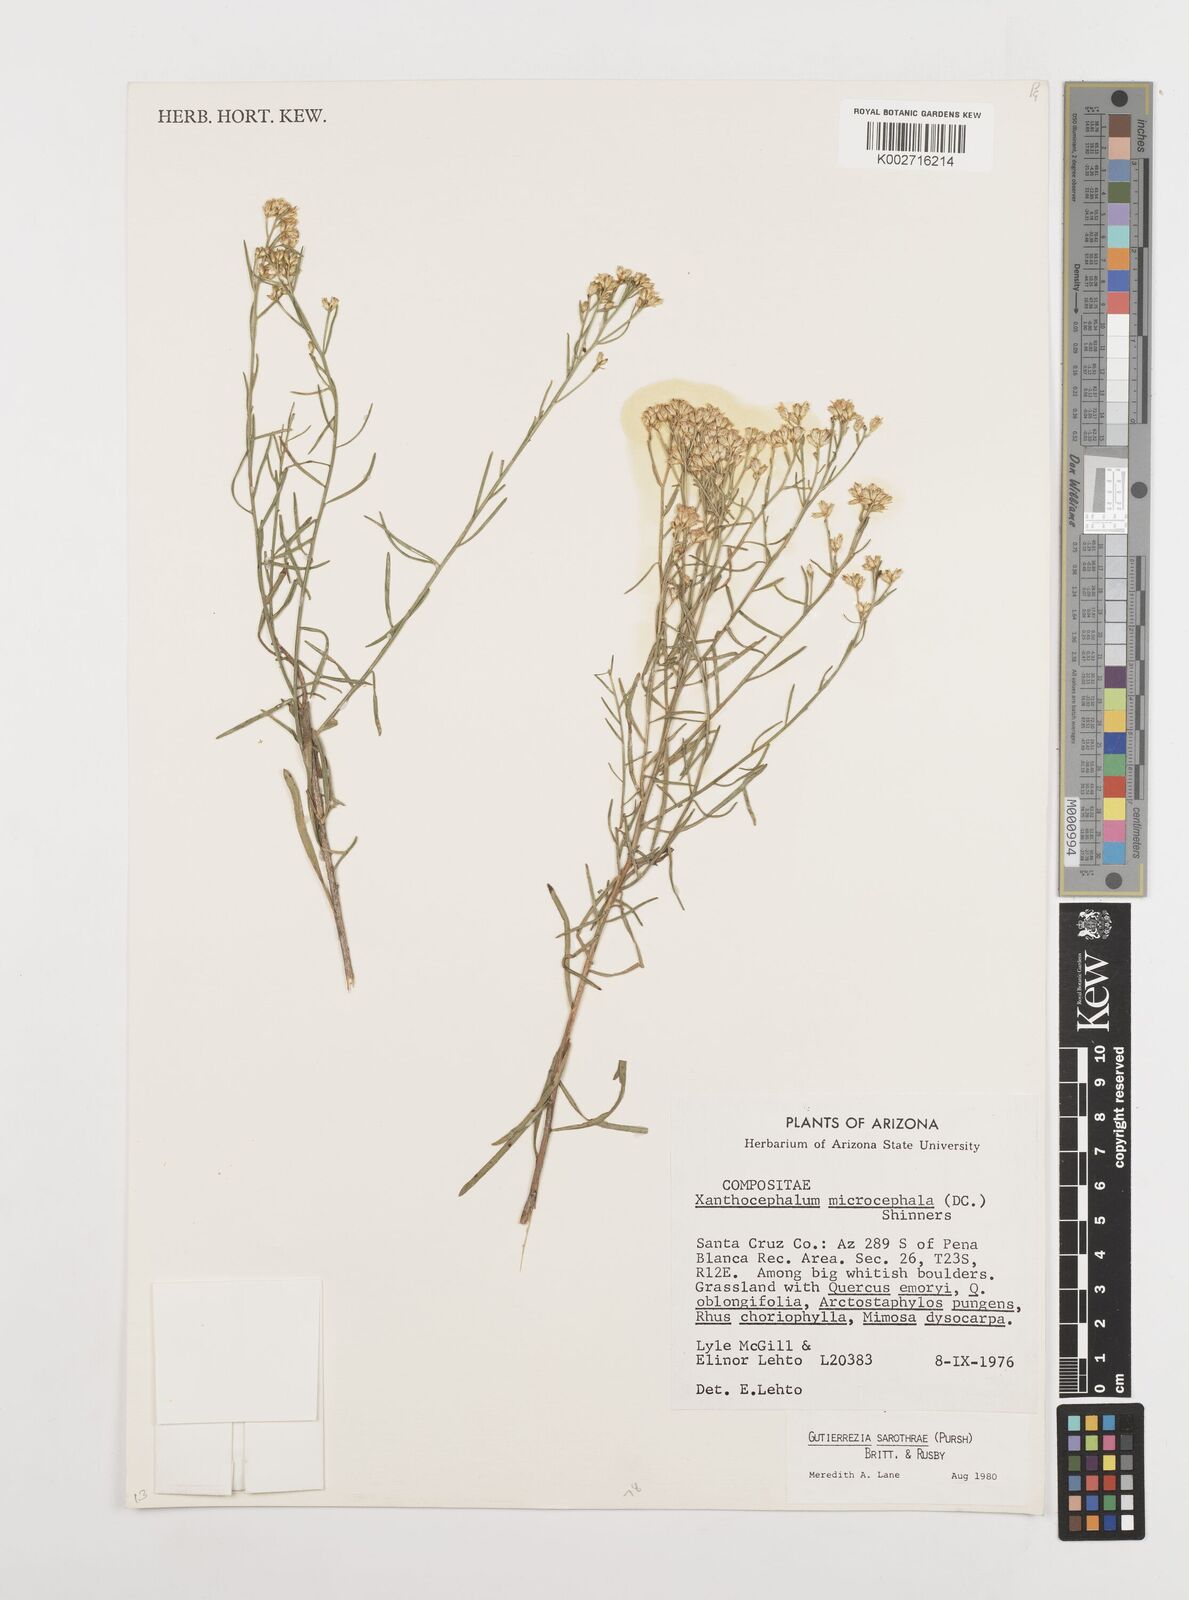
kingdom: Plantae
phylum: Tracheophyta
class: Magnoliopsida
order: Asterales
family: Asteraceae
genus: Gutierrezia
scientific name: Gutierrezia sarothrae
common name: Broom snakeweed
